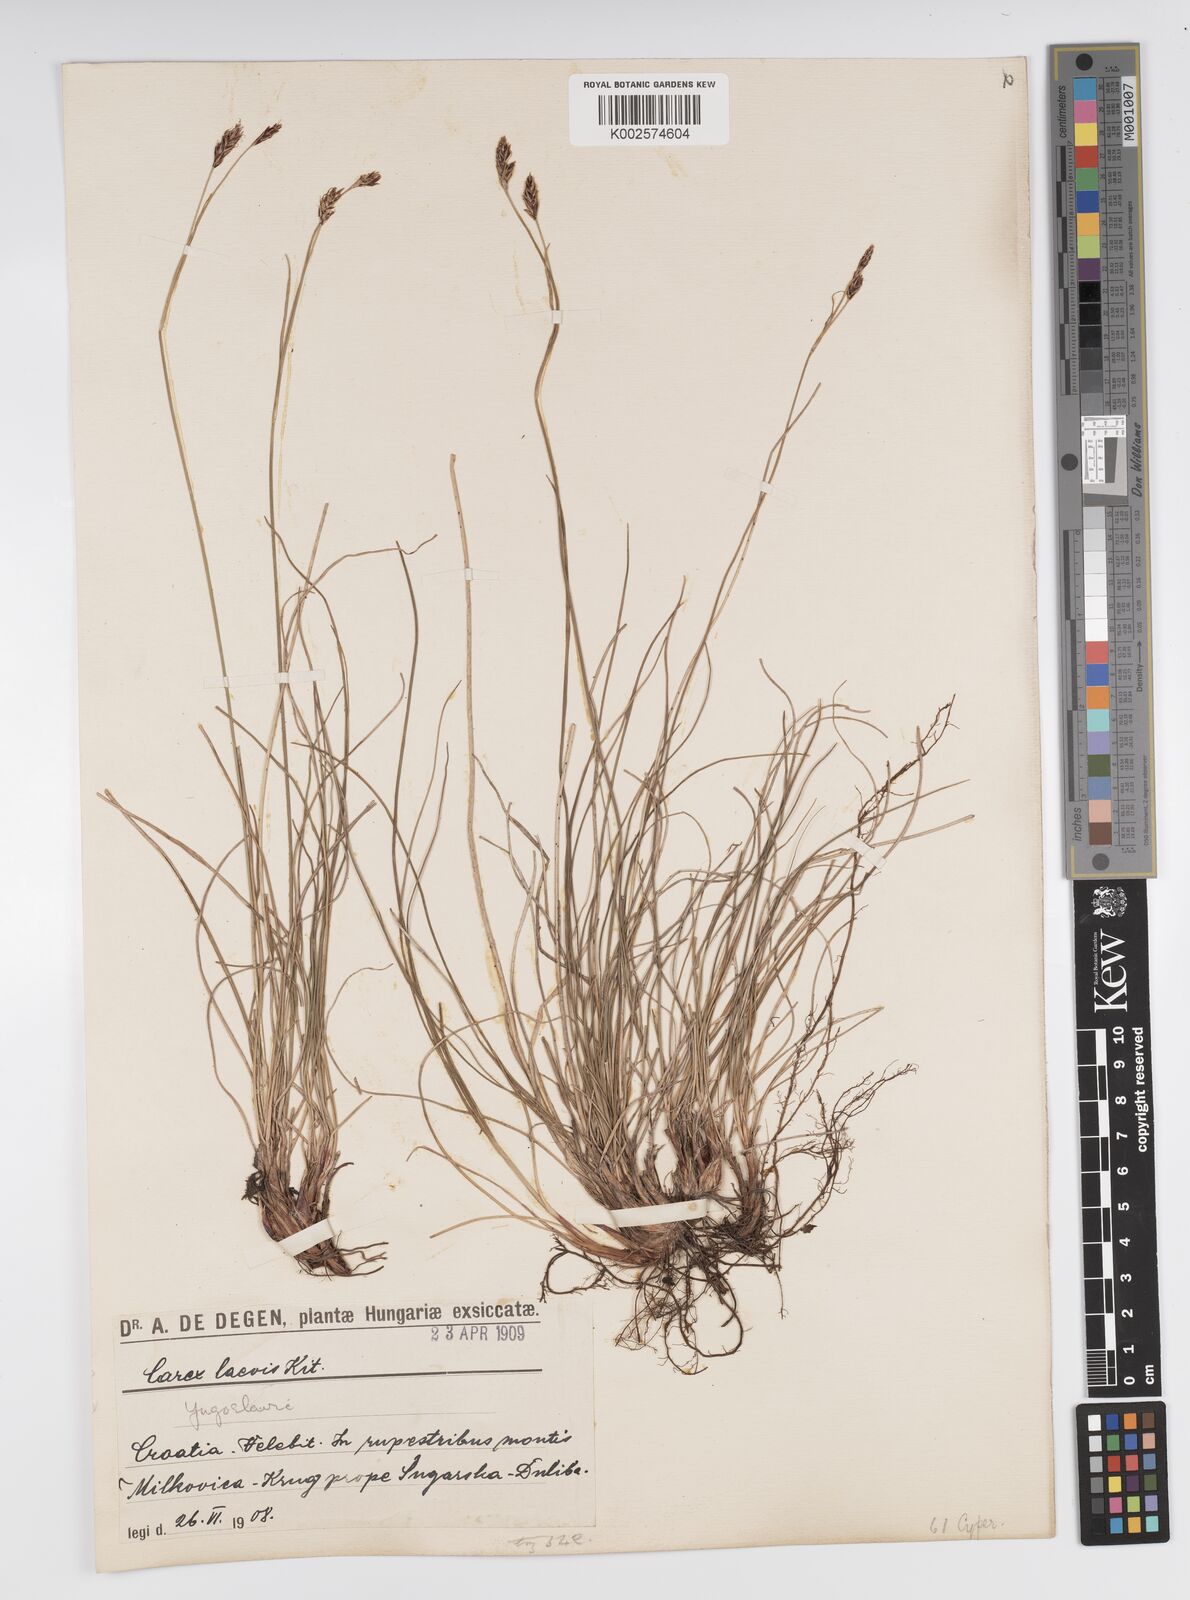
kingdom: Plantae
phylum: Tracheophyta
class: Liliopsida
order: Poales
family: Cyperaceae
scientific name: Cyperaceae
